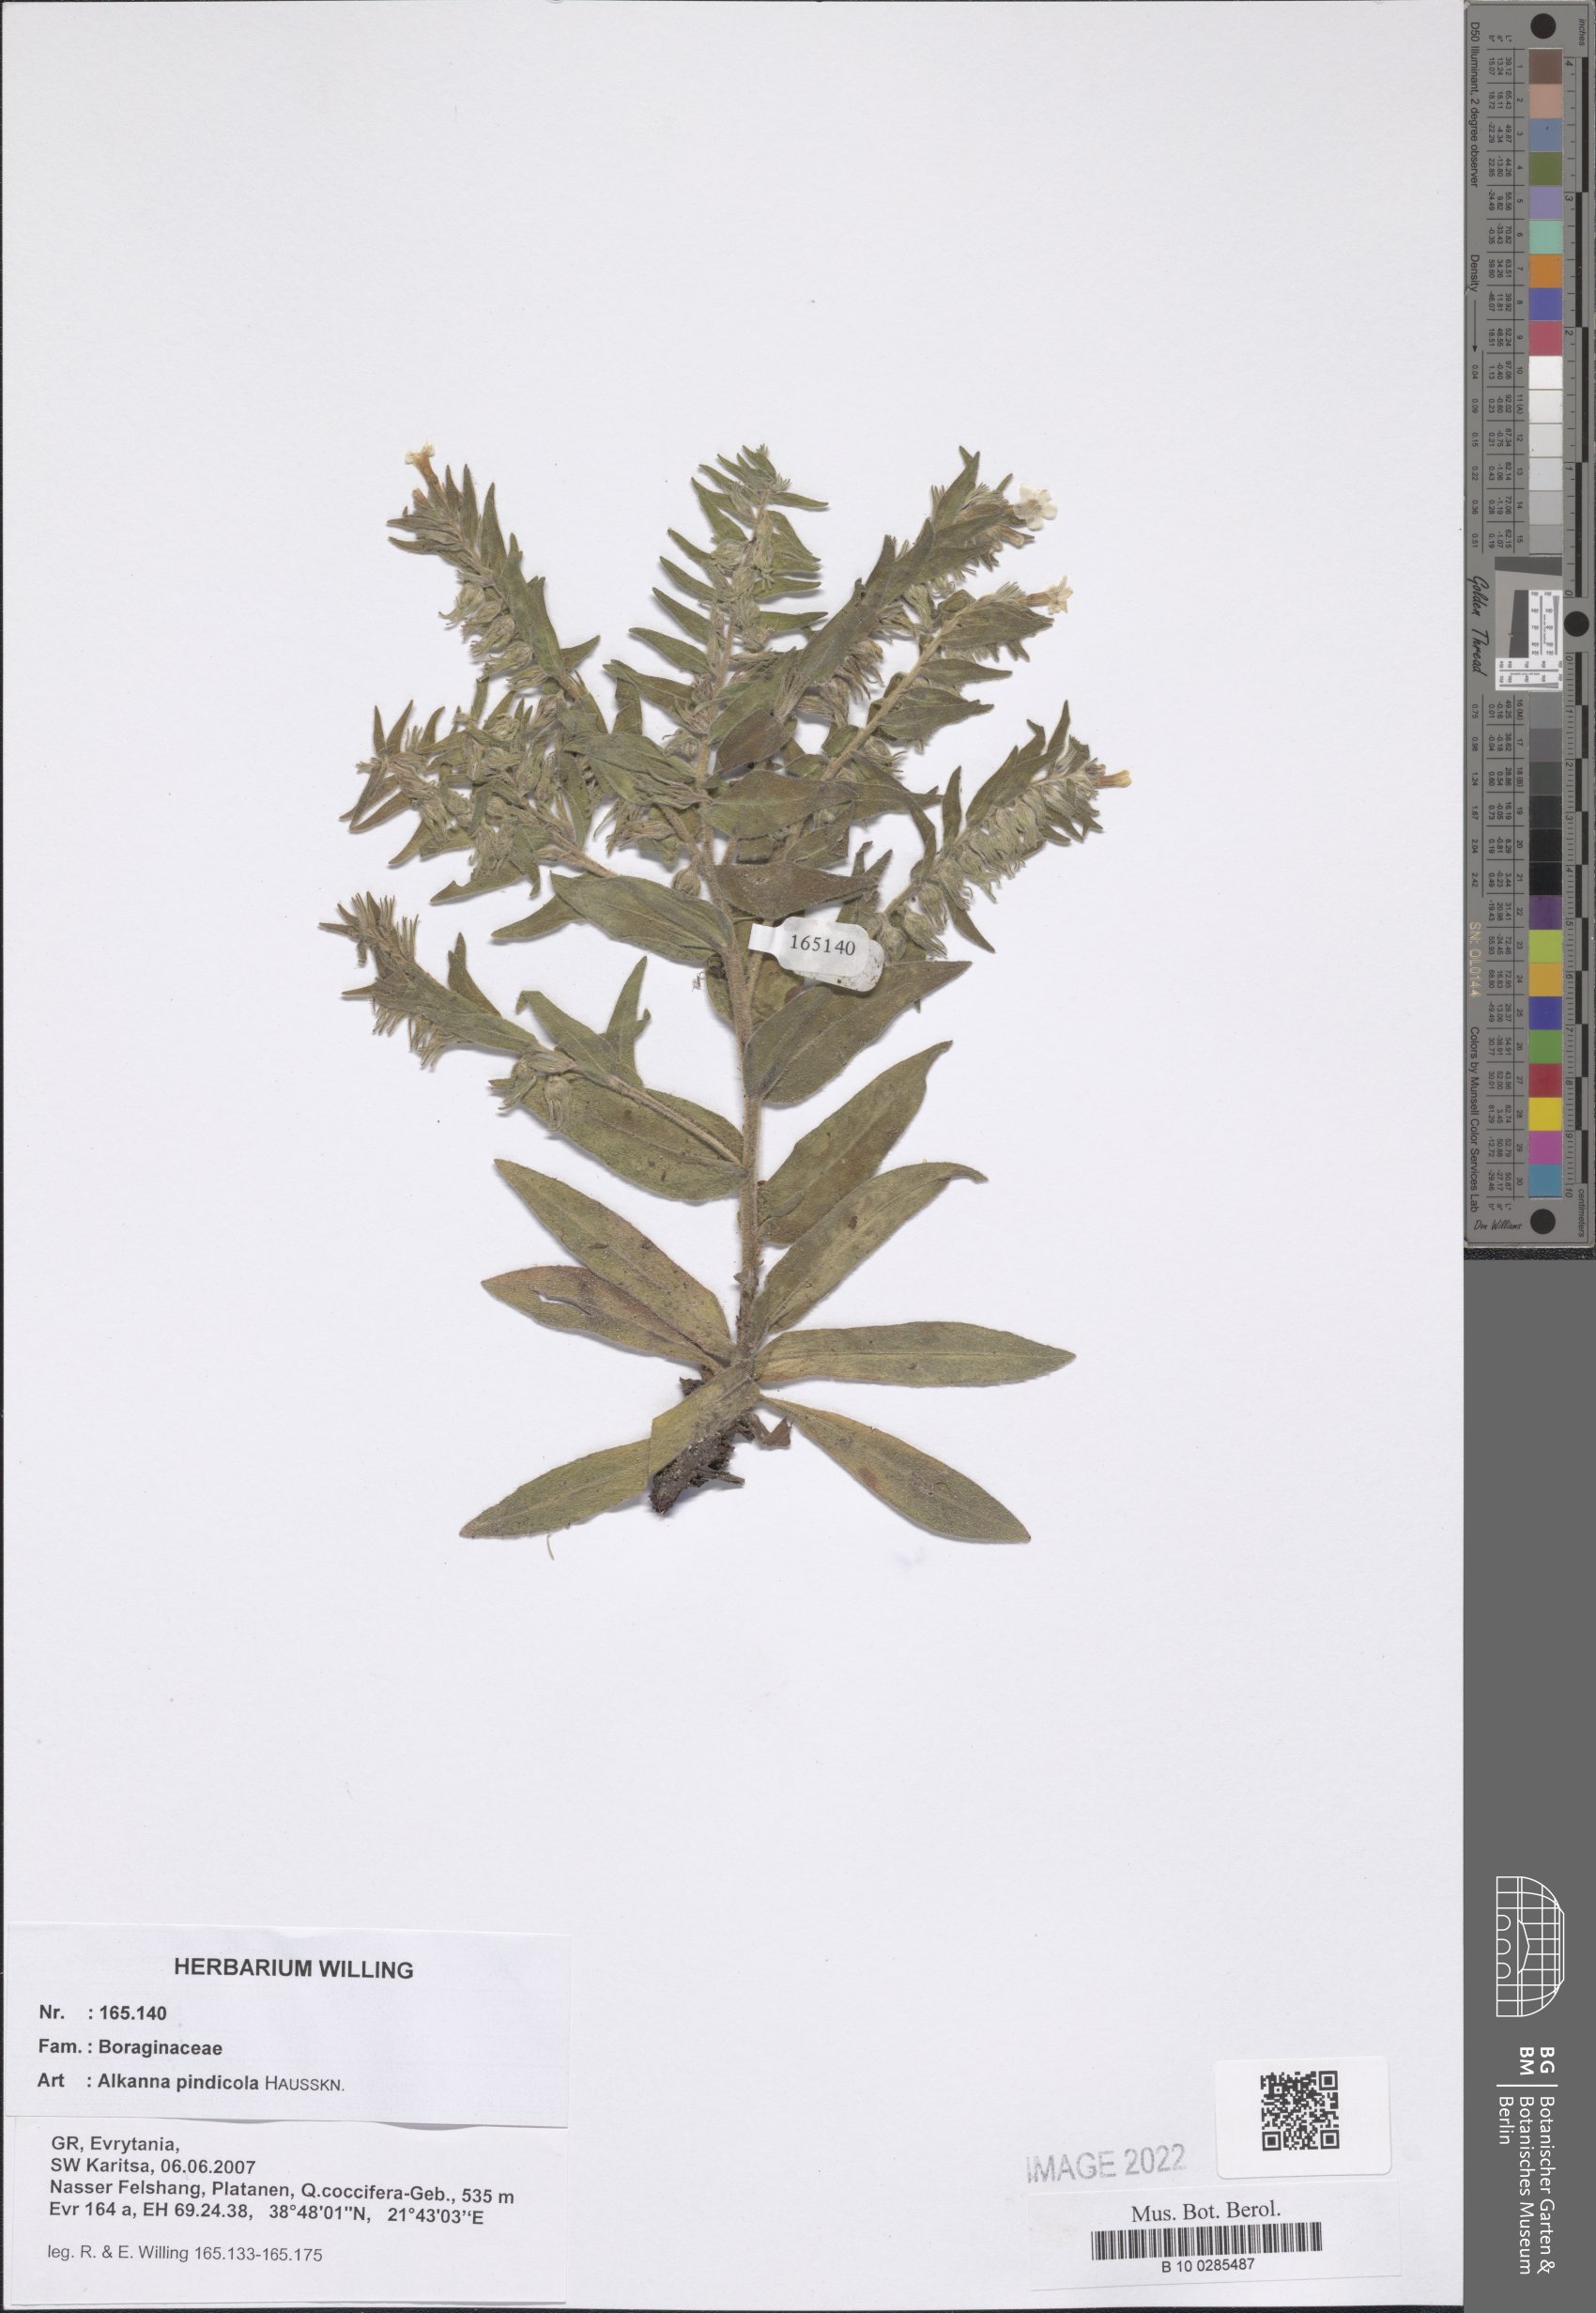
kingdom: Plantae
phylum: Tracheophyta
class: Magnoliopsida
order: Boraginales
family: Boraginaceae
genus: Alkanna
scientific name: Alkanna pindicola
